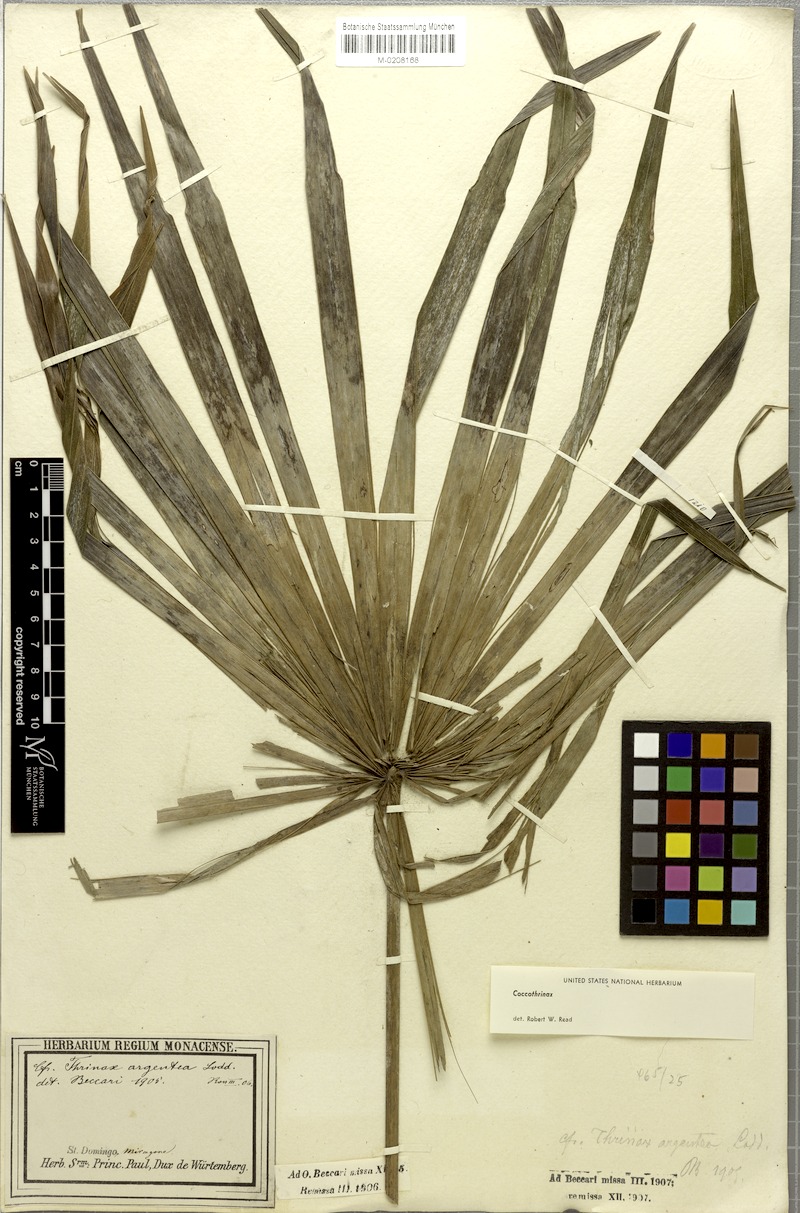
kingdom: Plantae
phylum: Tracheophyta
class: Liliopsida
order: Arecales
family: Arecaceae
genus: Coccothrinax
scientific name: Coccothrinax argentea
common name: Broom palm
